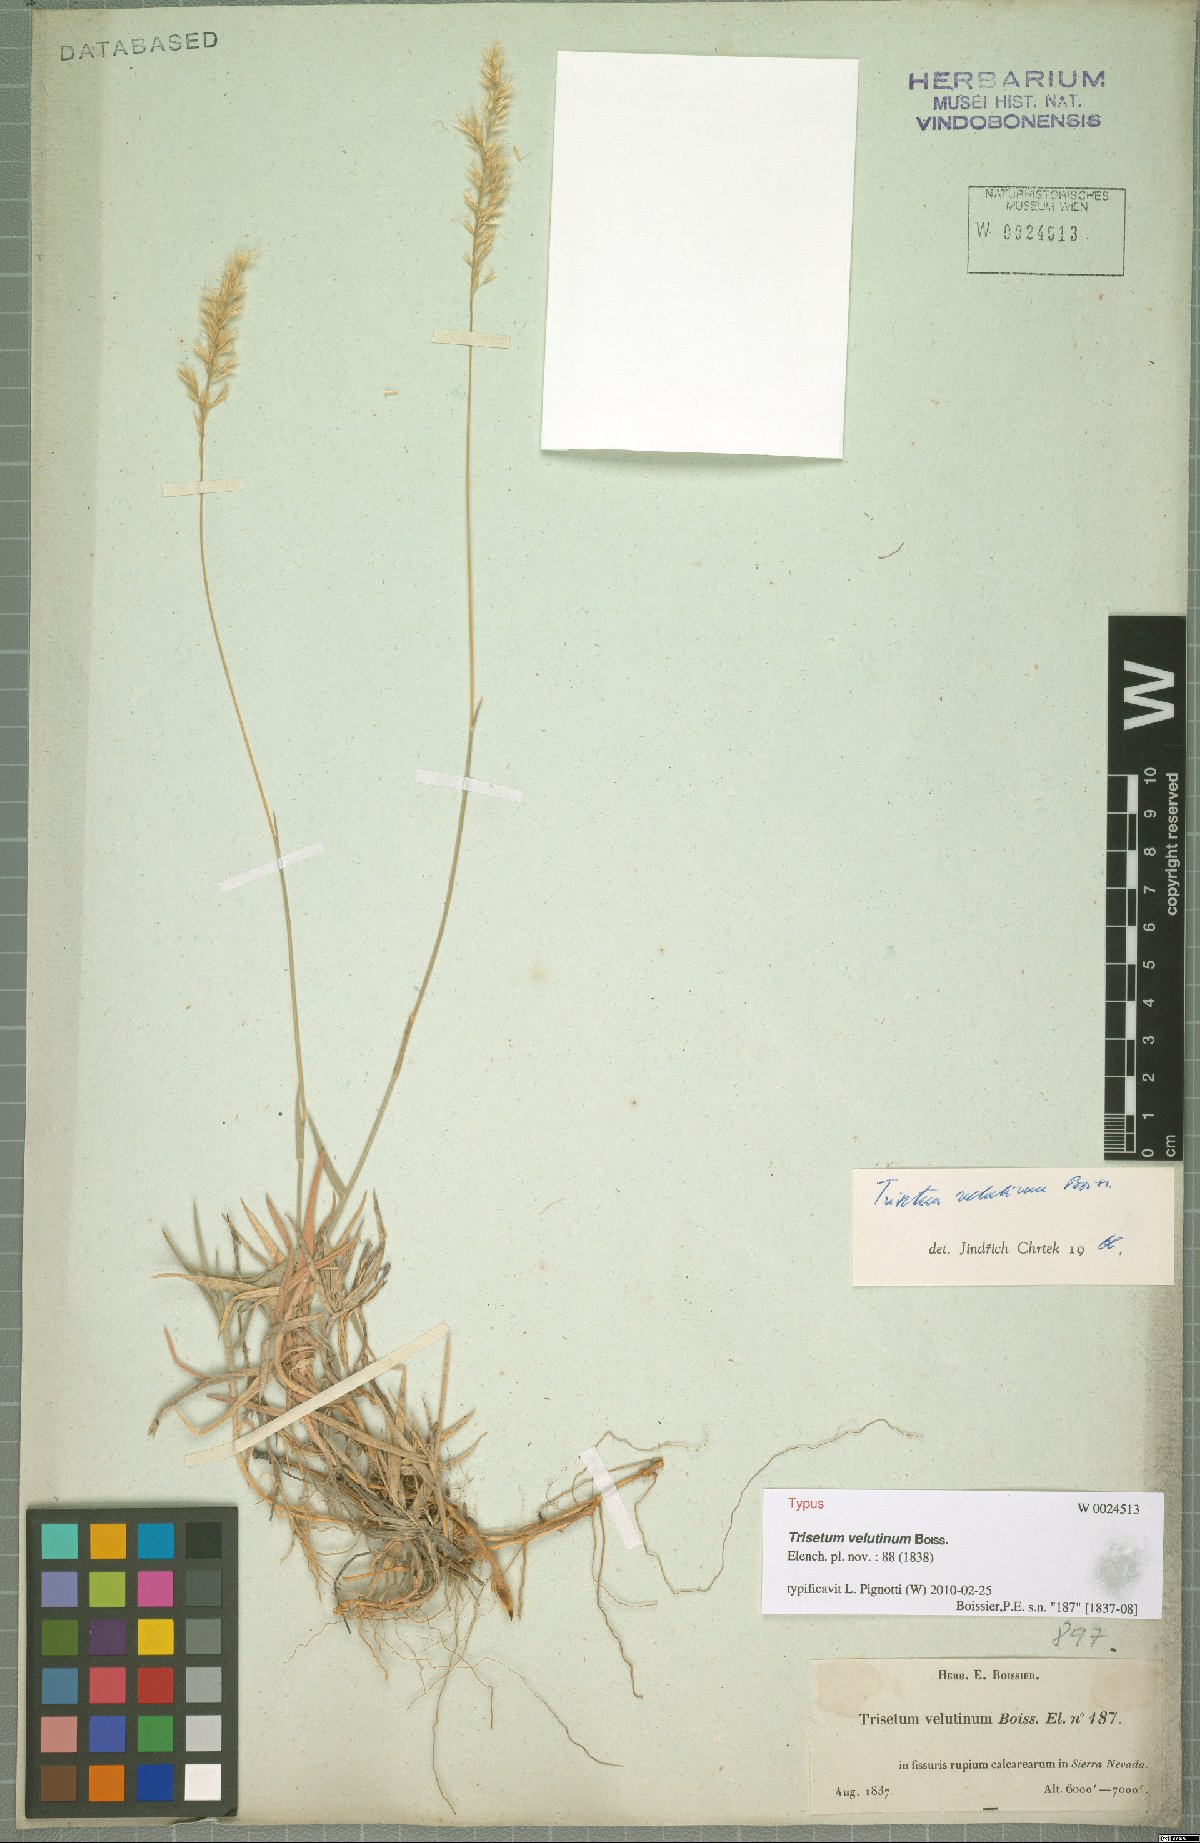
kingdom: Plantae
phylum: Tracheophyta
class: Liliopsida
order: Poales
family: Poaceae
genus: Trisetum
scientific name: Trisetum velutinum
